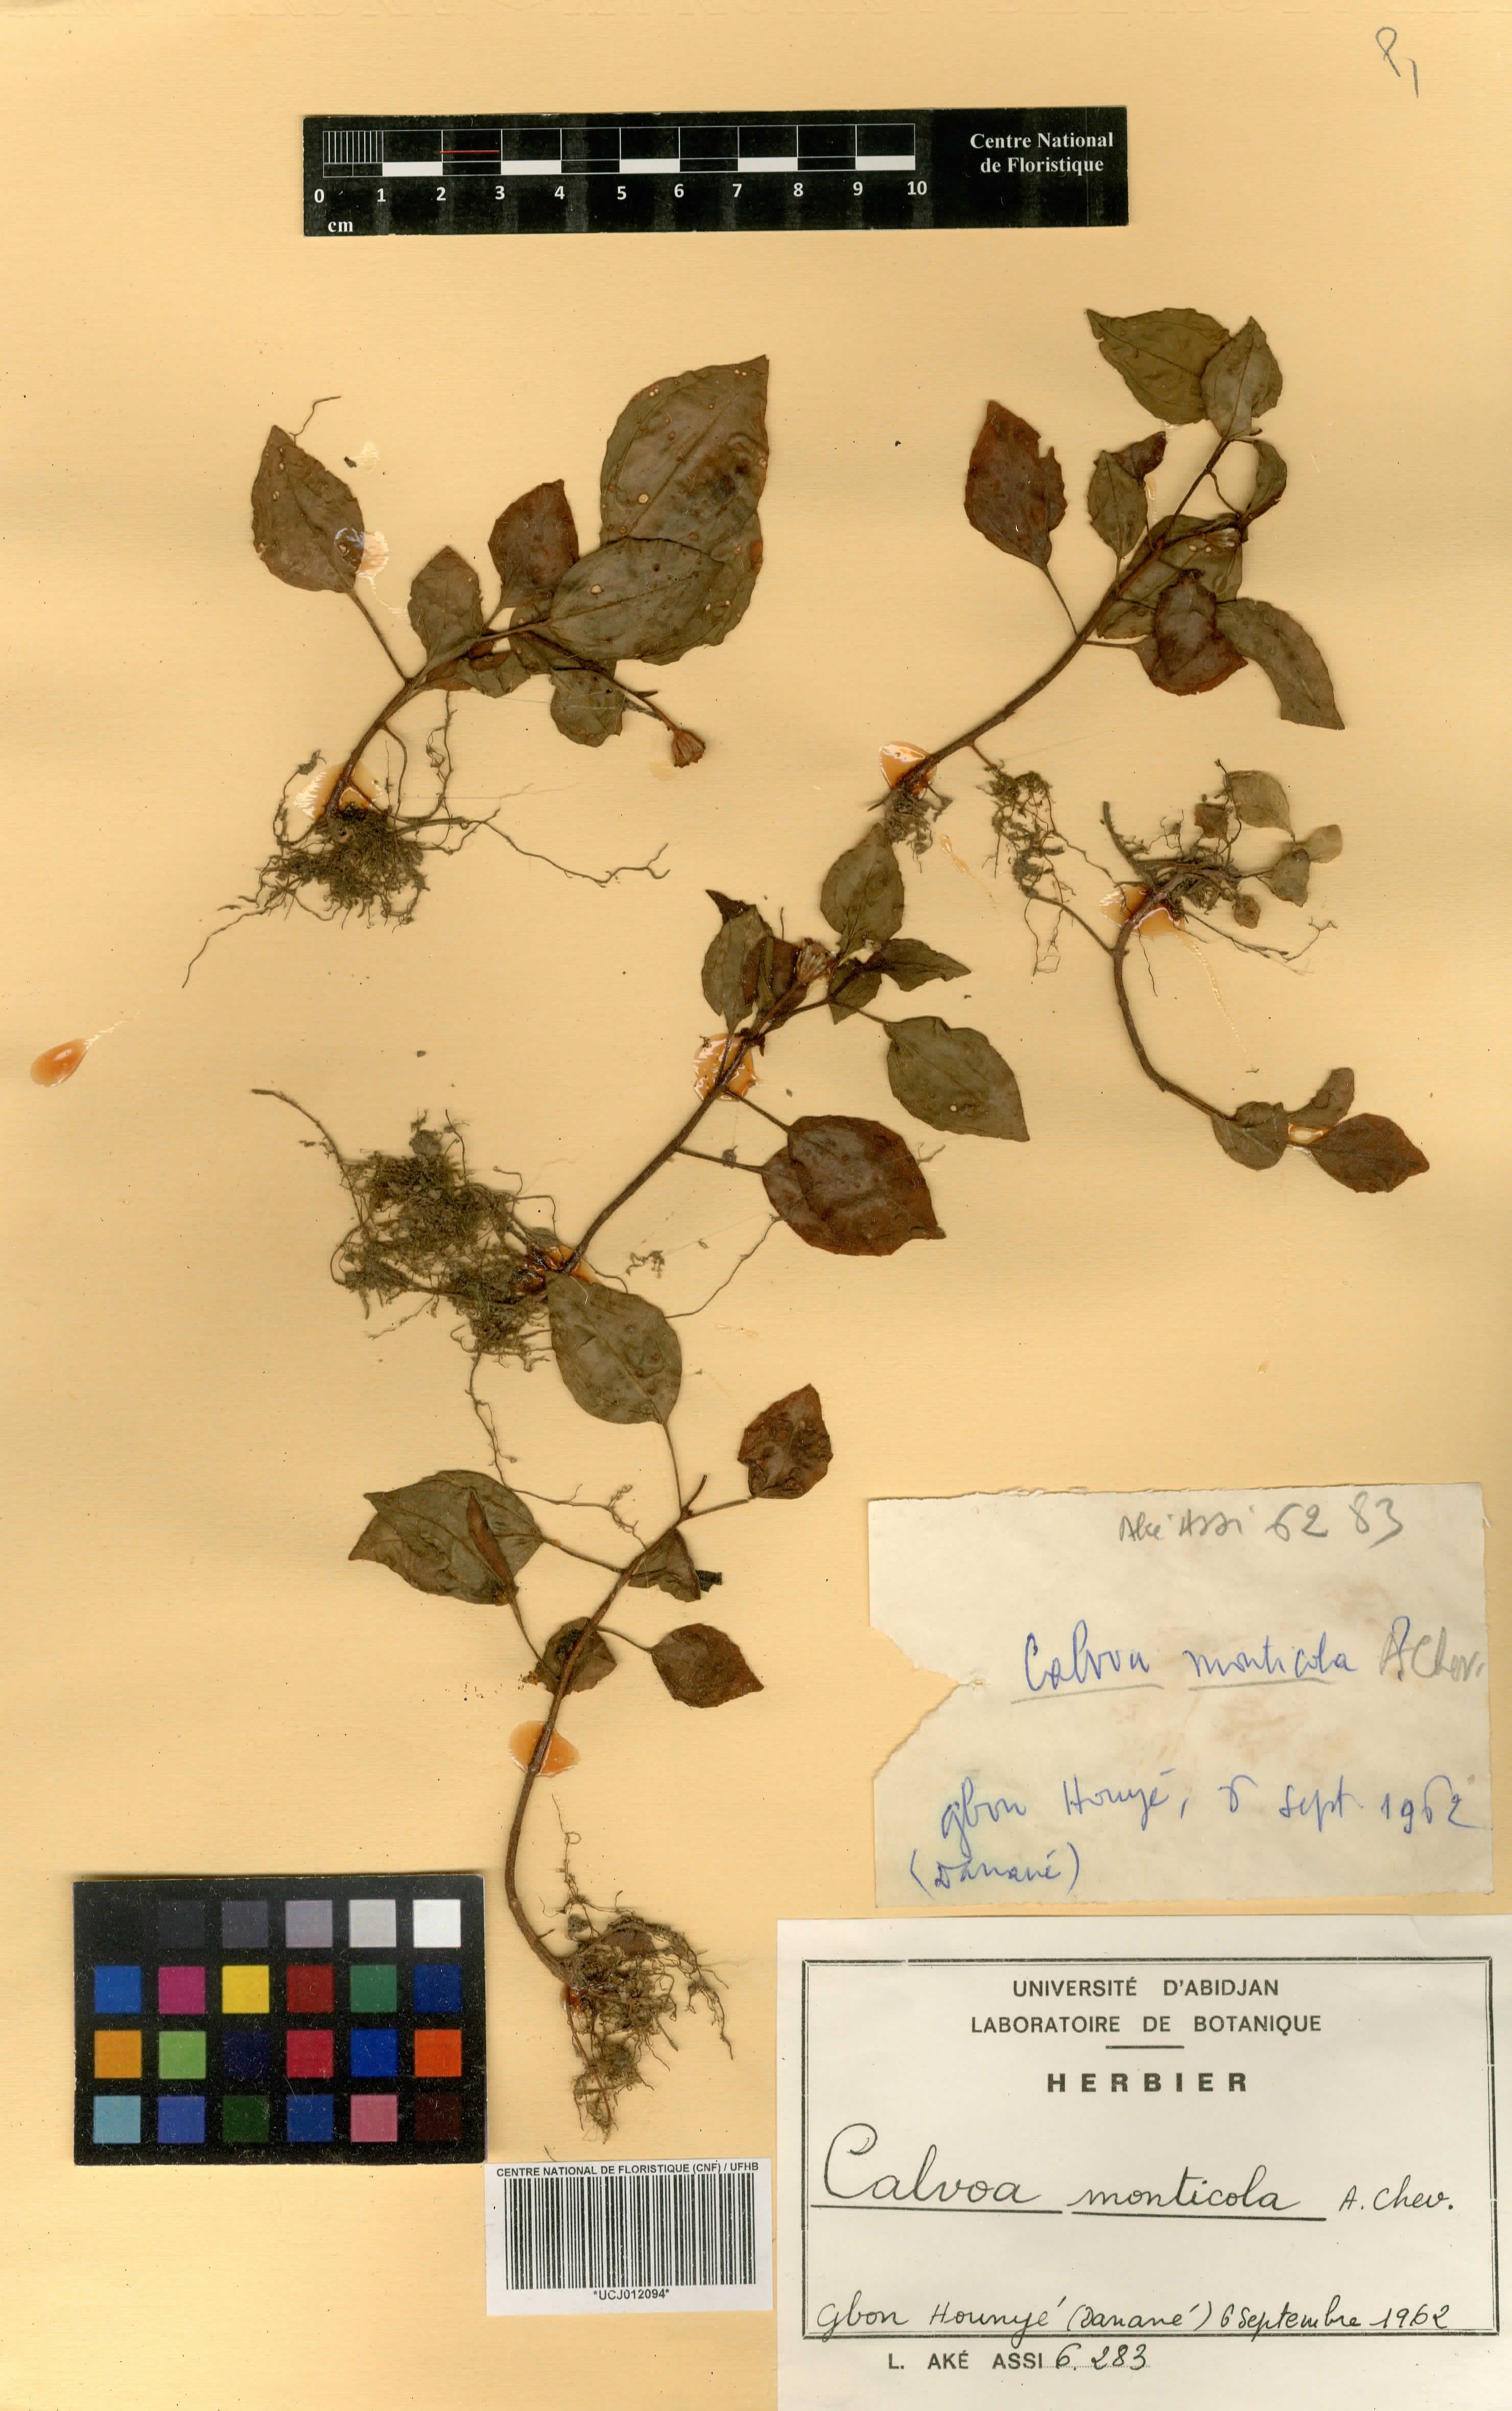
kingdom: Plantae
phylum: Tracheophyta
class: Magnoliopsida
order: Myrtales
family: Melastomataceae
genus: Calvoa
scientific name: Calvoa monticola
